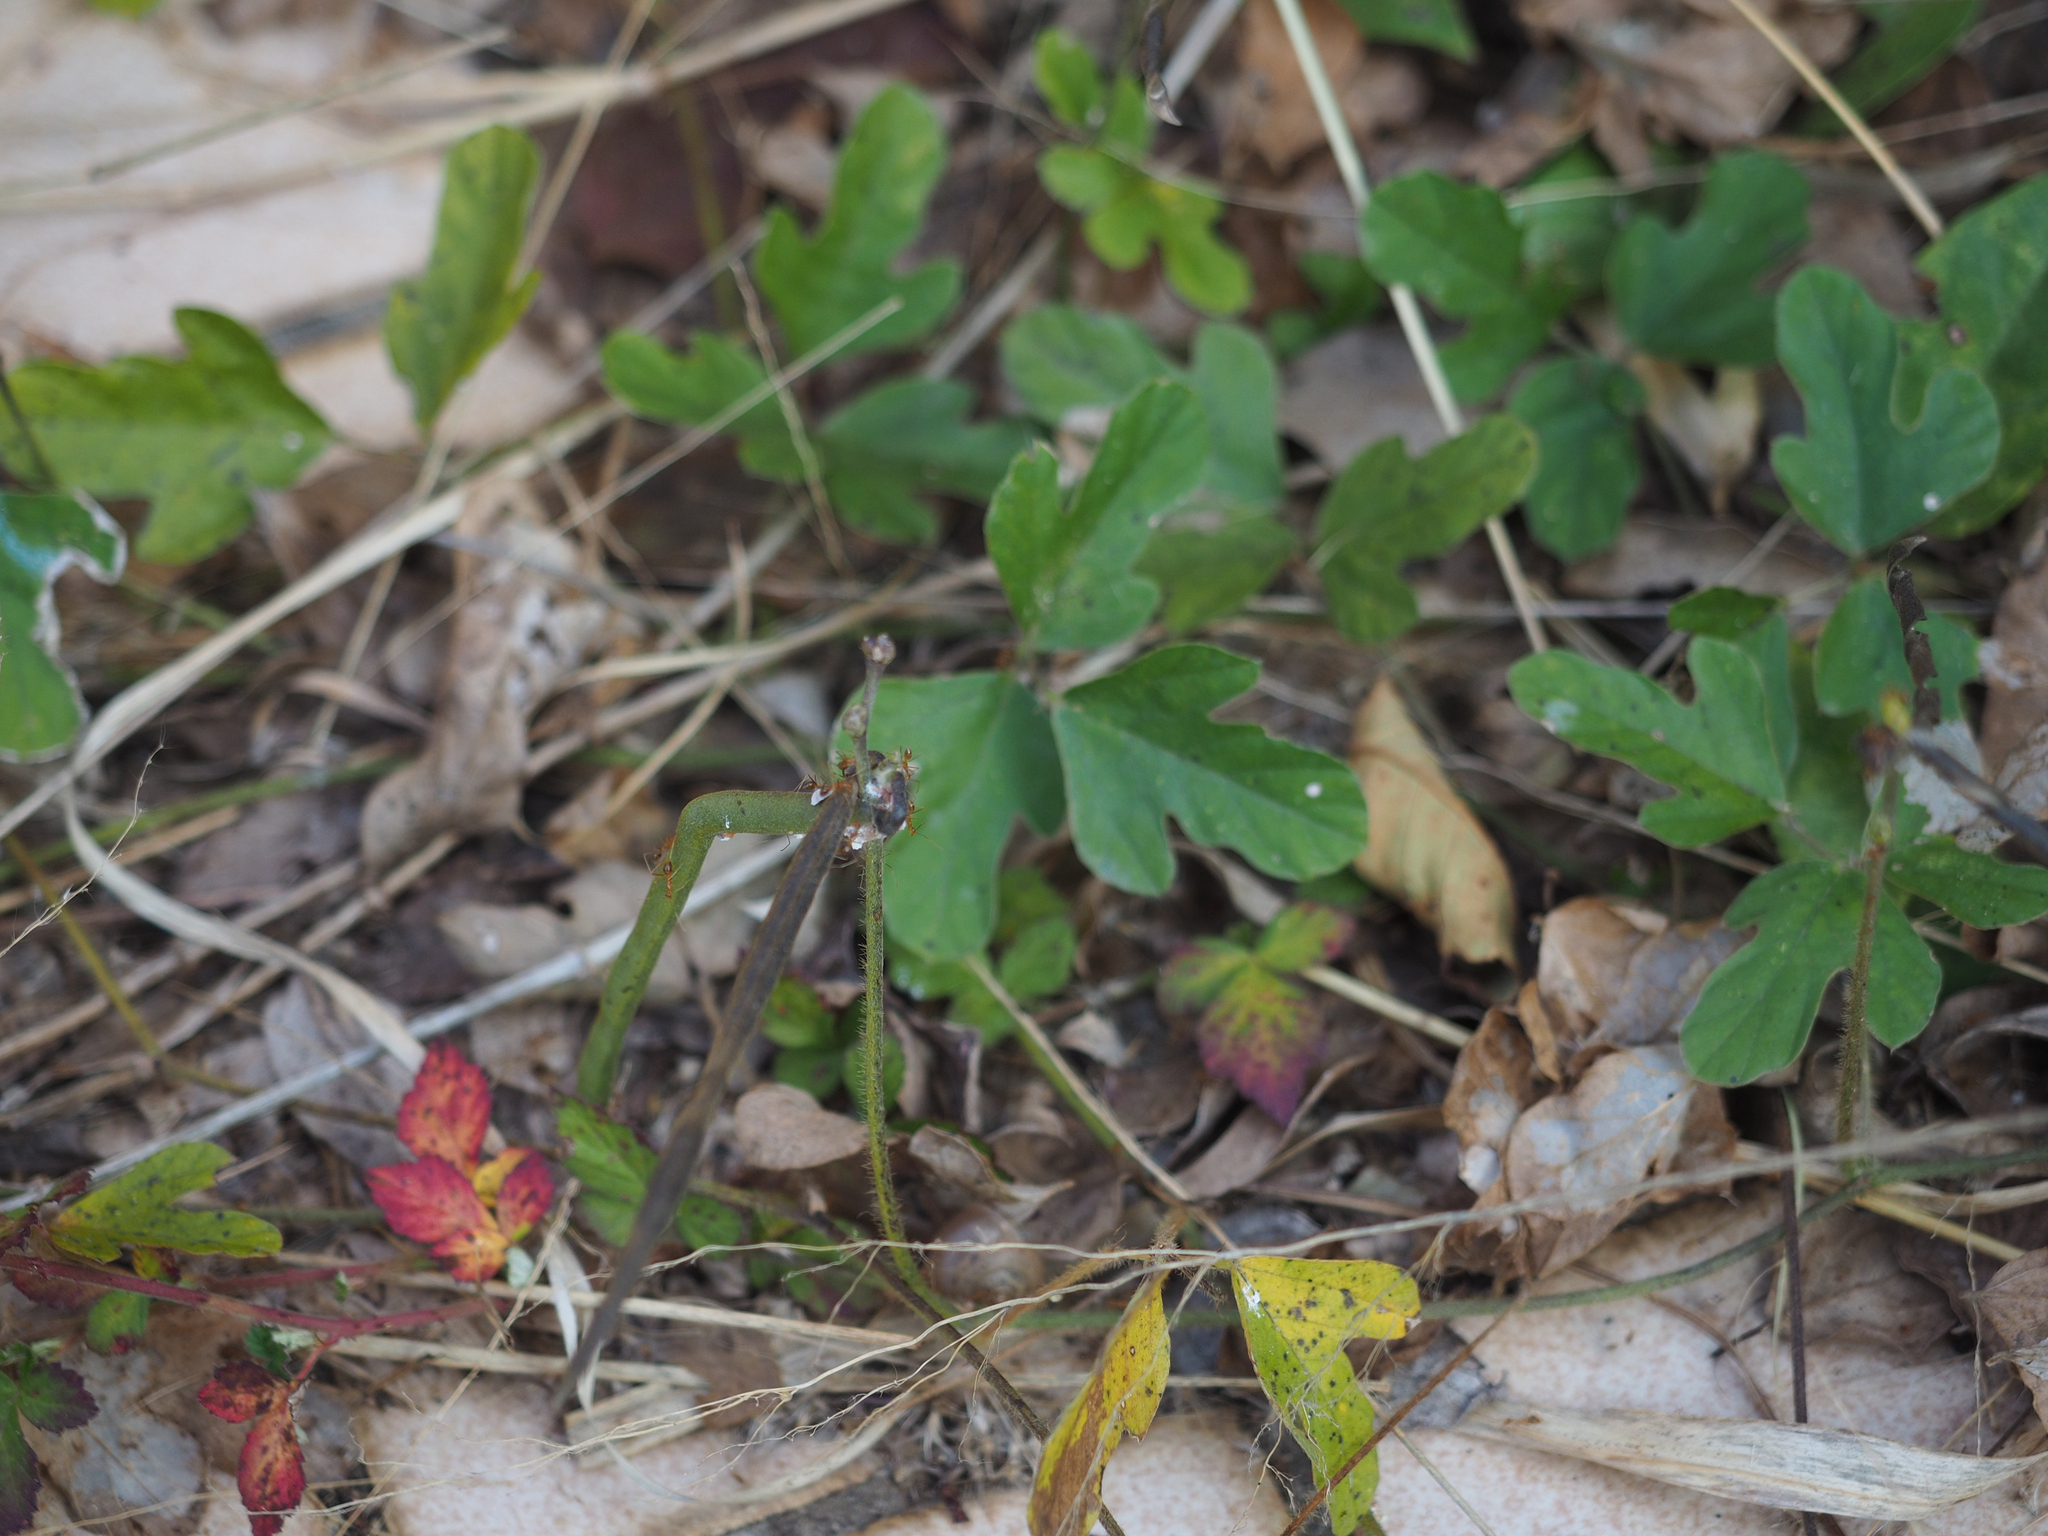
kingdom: Plantae
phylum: Tracheophyta
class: Magnoliopsida
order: Fabales
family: Fabaceae
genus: Neustanthus
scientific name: Neustanthus phaseoloides
